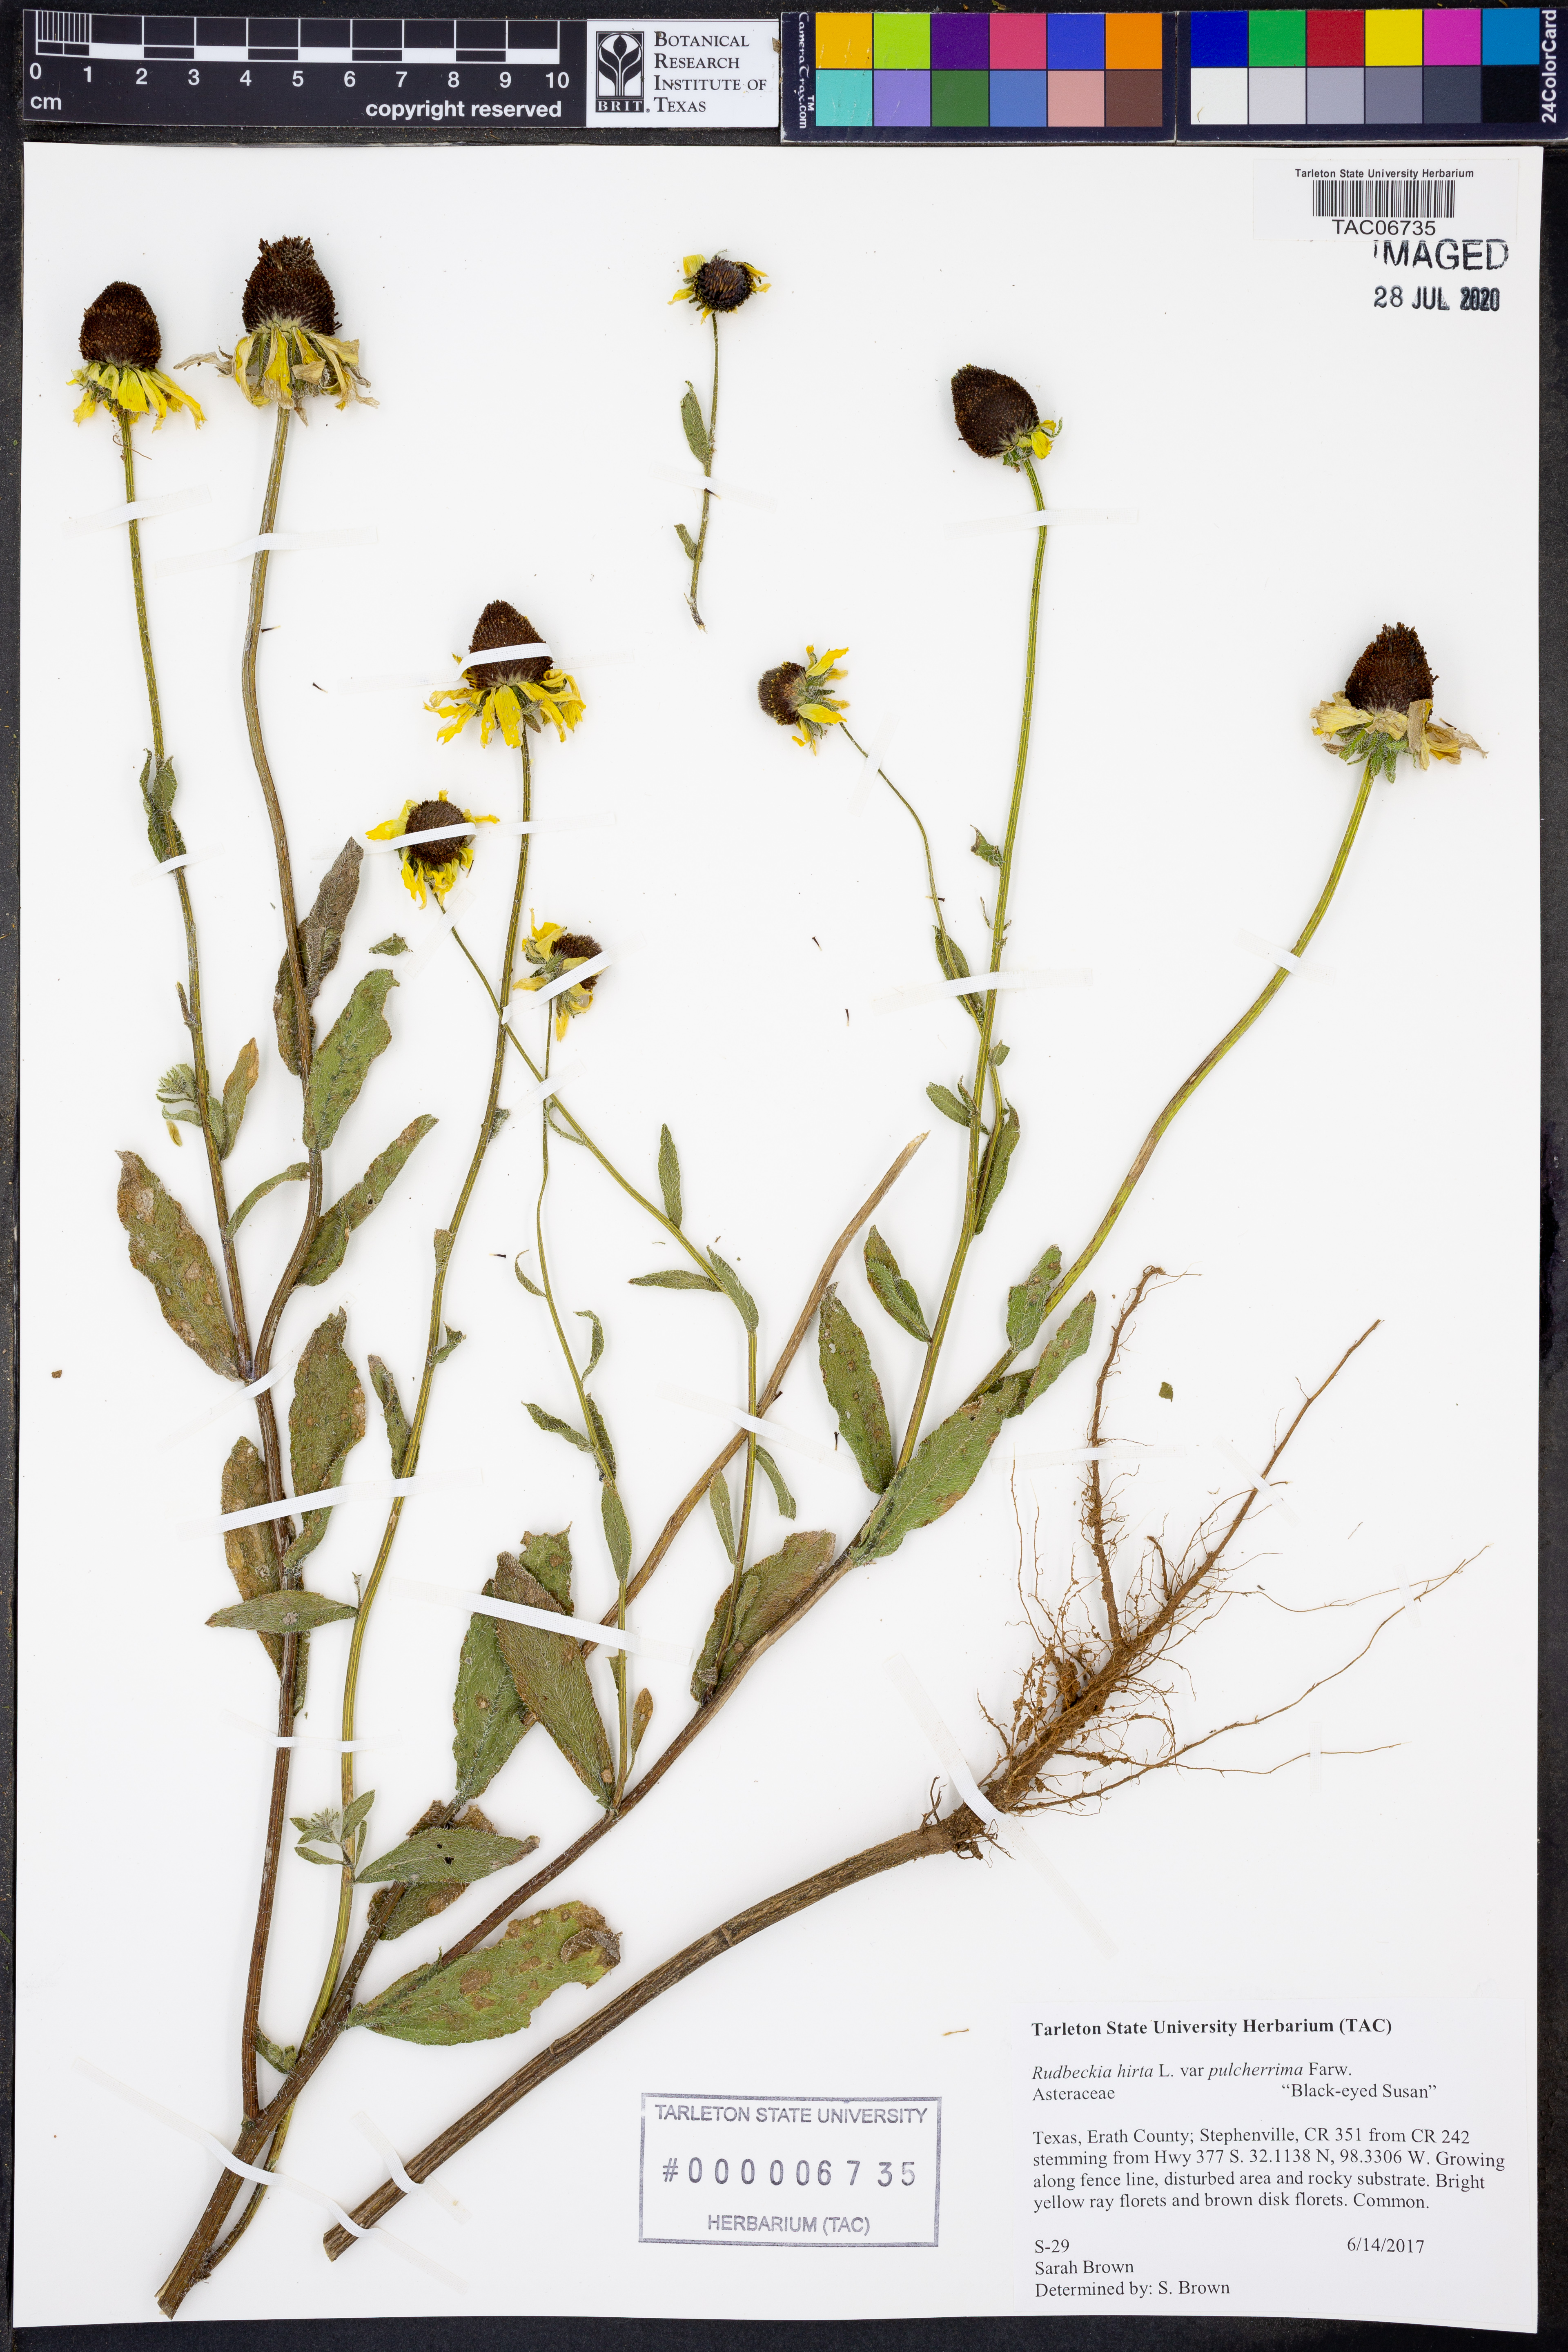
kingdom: Plantae
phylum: Tracheophyta
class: Magnoliopsida
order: Asterales
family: Asteraceae
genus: Rudbeckia
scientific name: Rudbeckia hirta
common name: Black-eyed-susan
